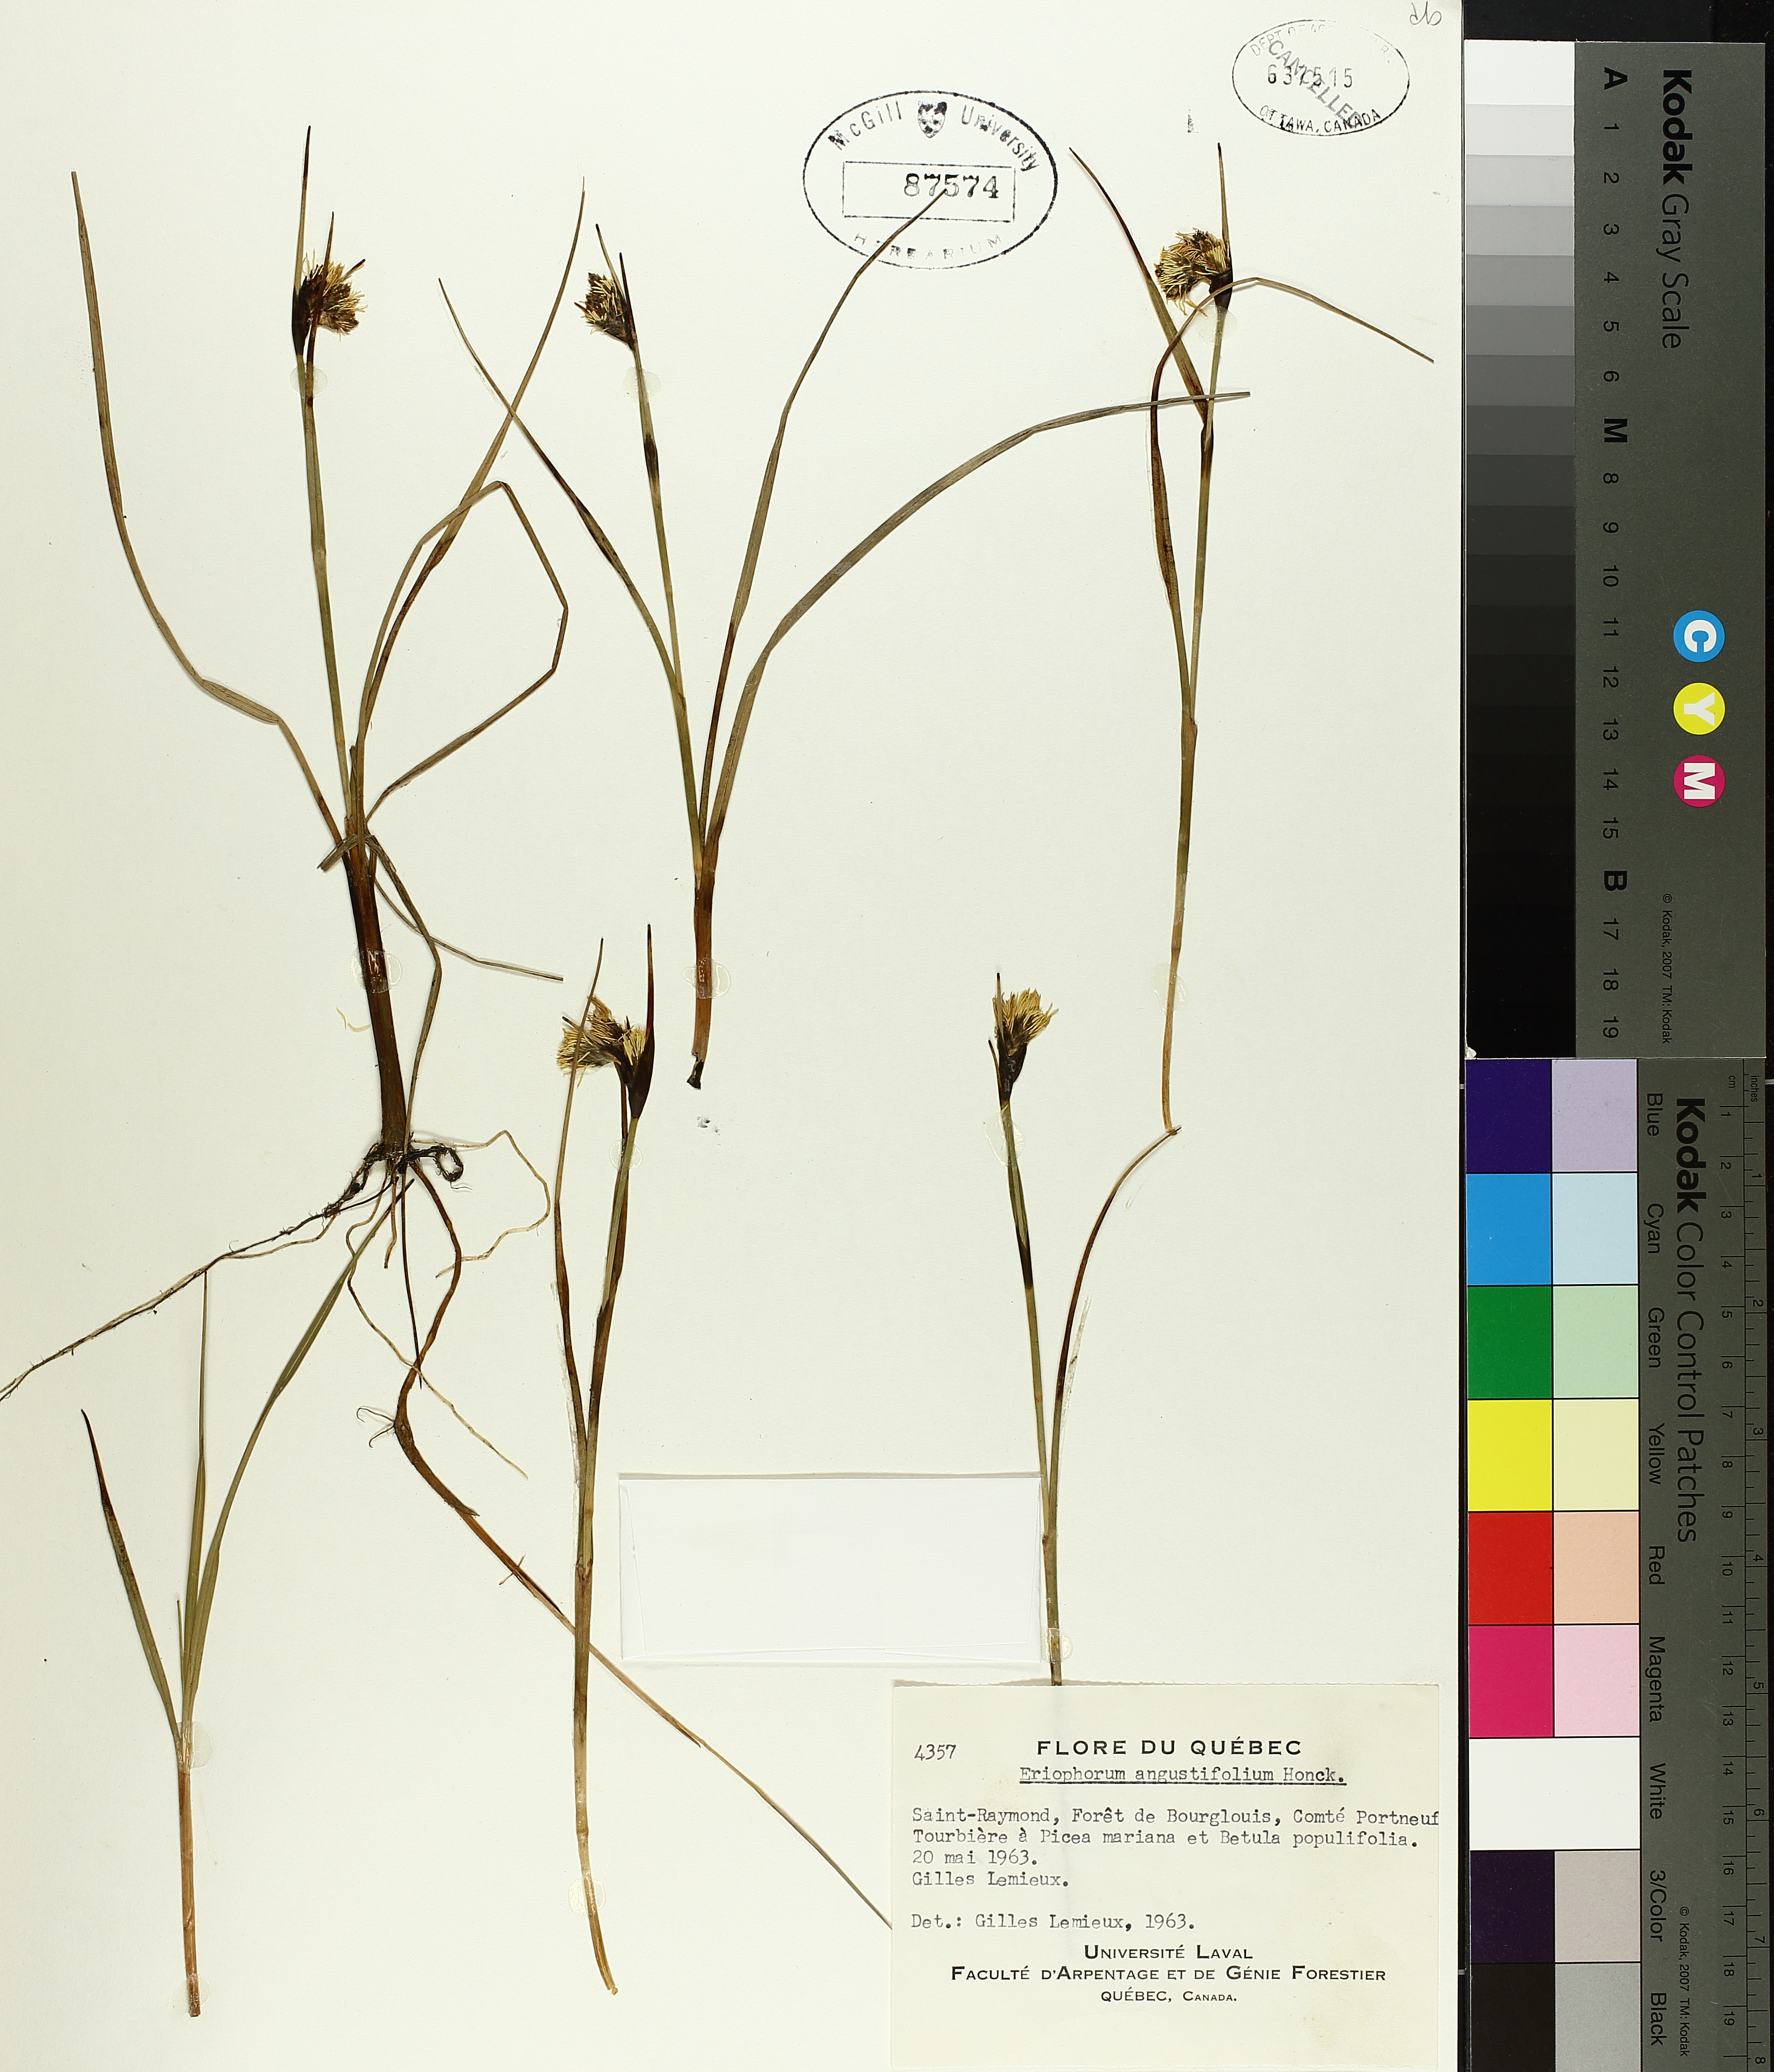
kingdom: Plantae
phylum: Tracheophyta
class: Liliopsida
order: Poales
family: Cyperaceae
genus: Eriophorum
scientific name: Eriophorum triste
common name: Tall cottongrass
